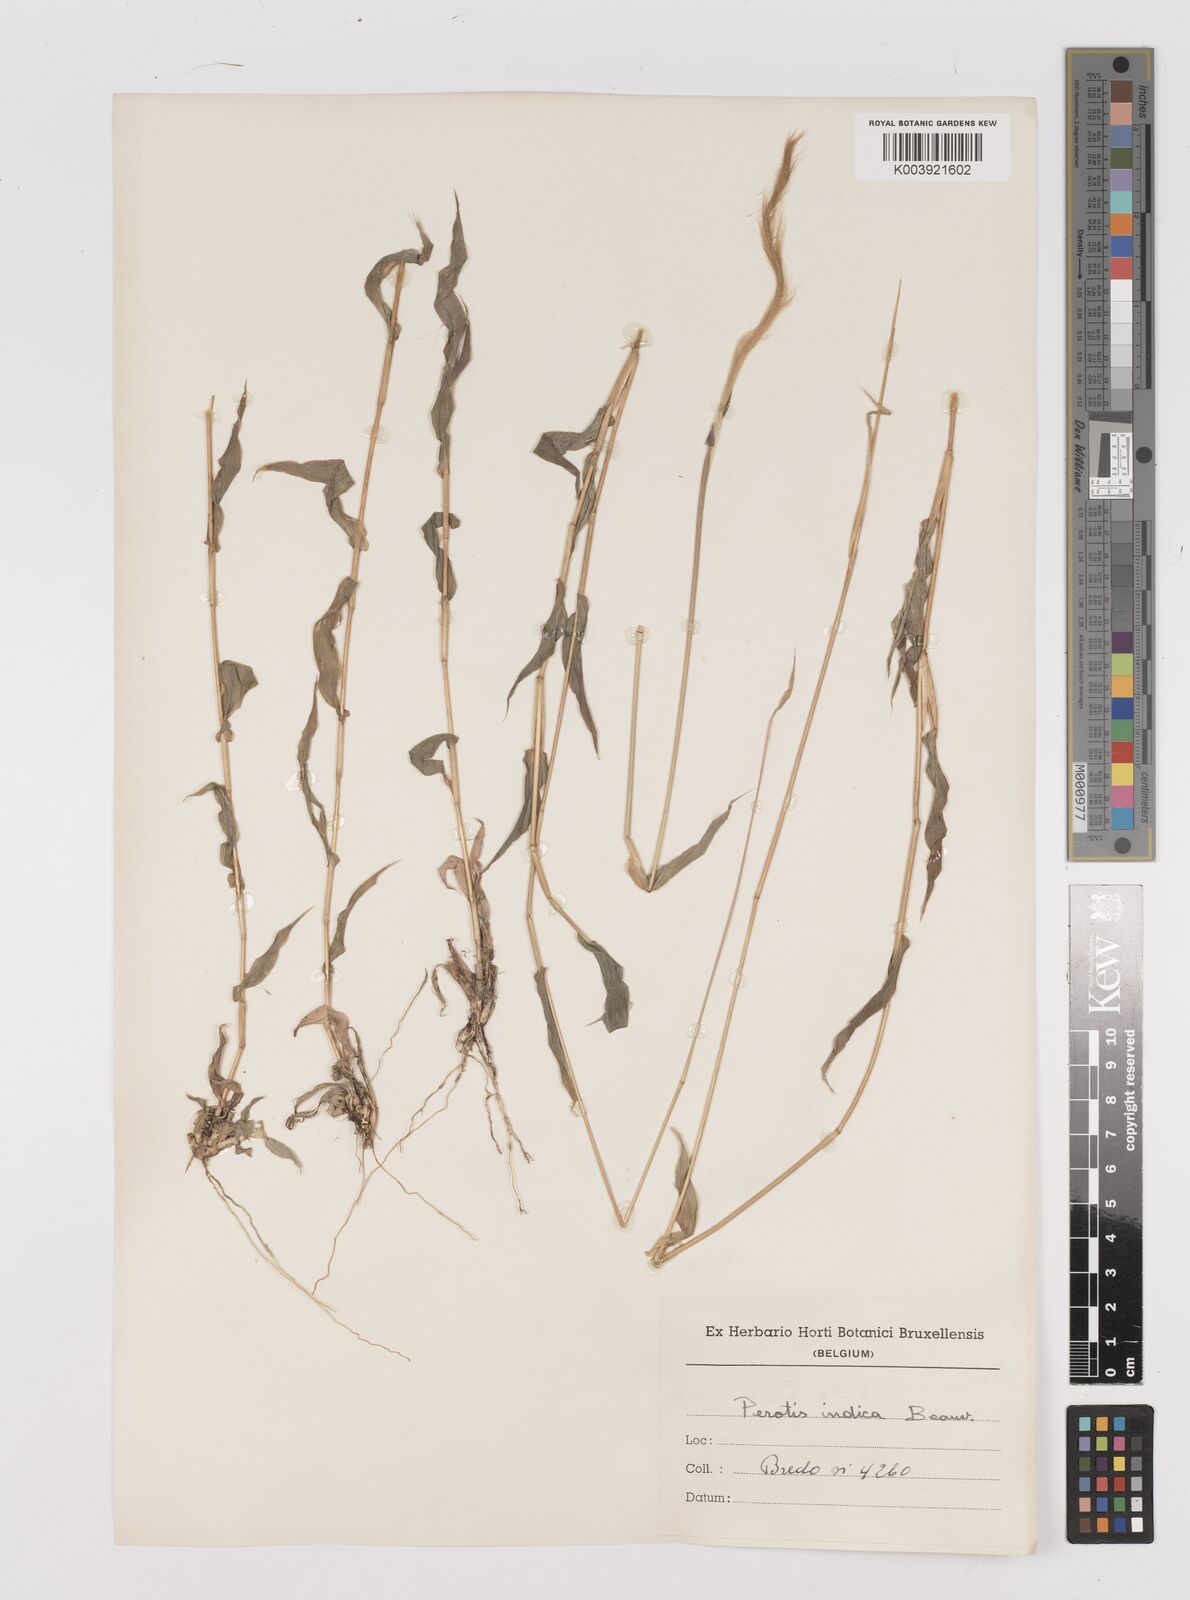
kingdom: Plantae
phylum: Tracheophyta
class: Liliopsida
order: Poales
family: Poaceae
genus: Perotis
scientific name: Perotis patens
